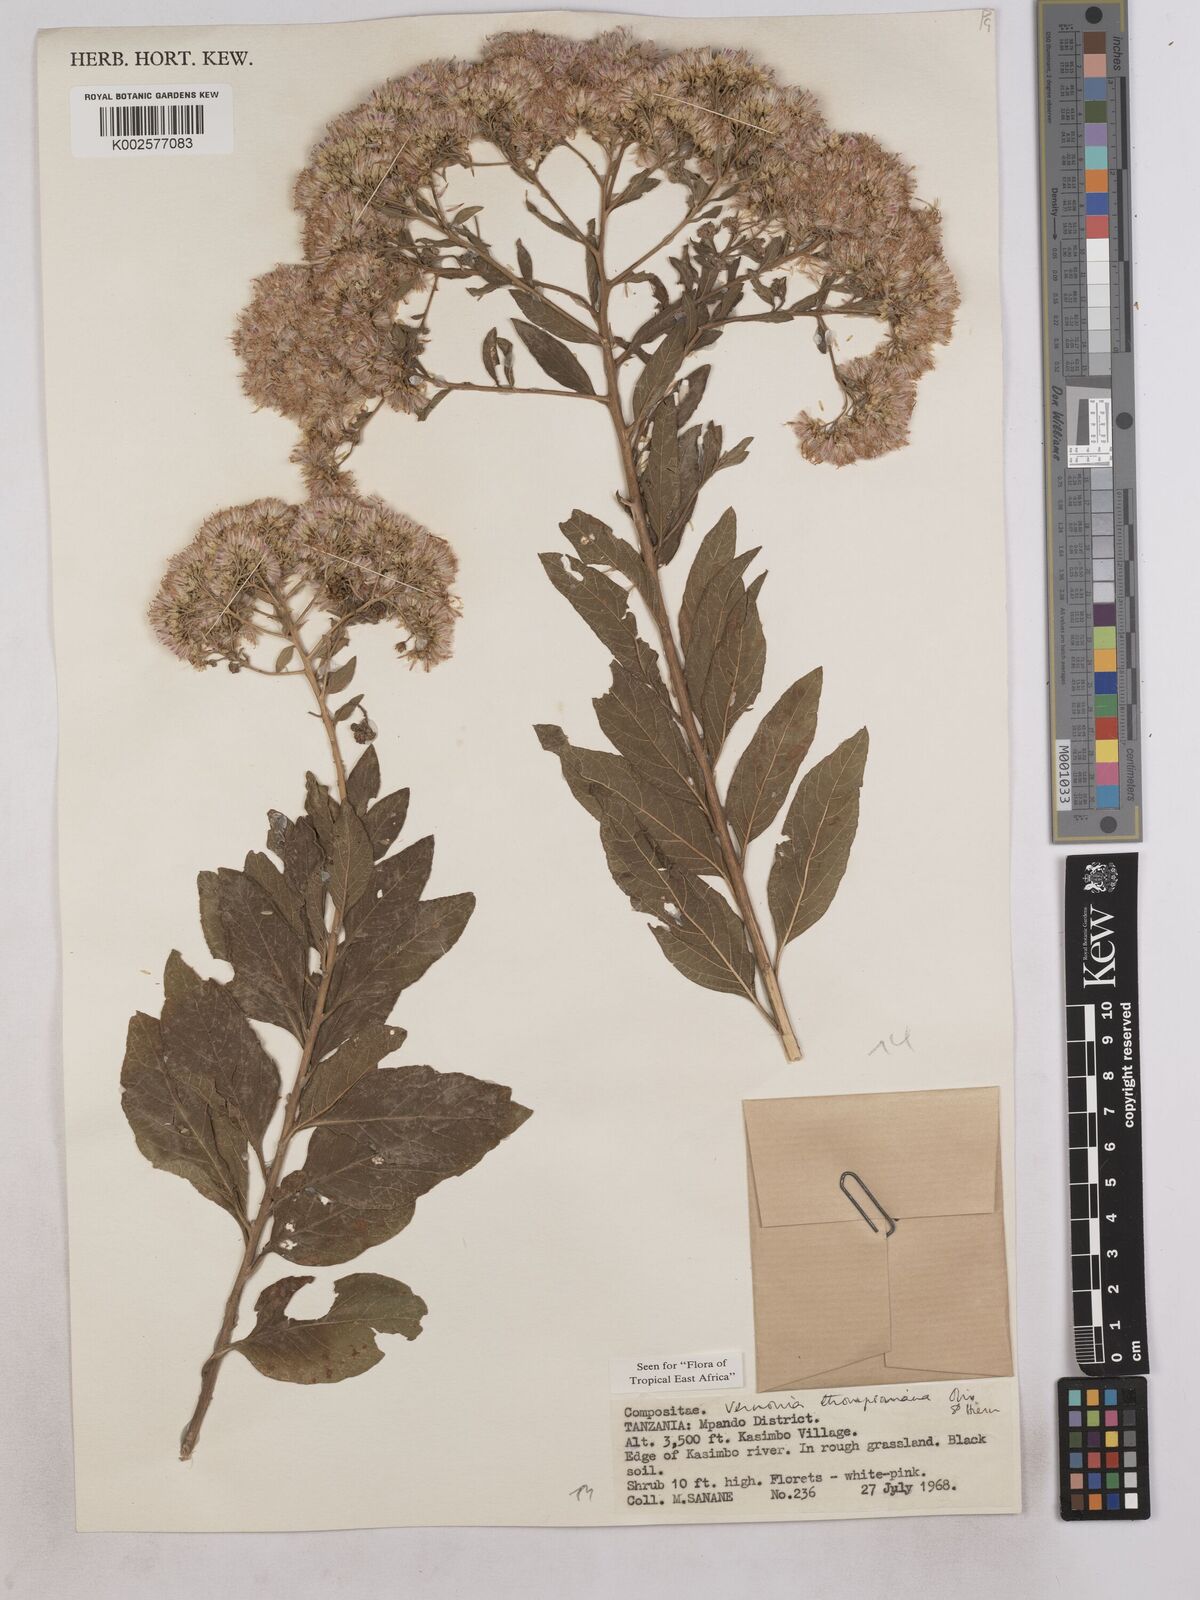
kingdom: Plantae
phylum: Tracheophyta
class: Magnoliopsida
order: Asterales
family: Asteraceae
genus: Gymnanthemum
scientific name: Gymnanthemum thomsonianum
